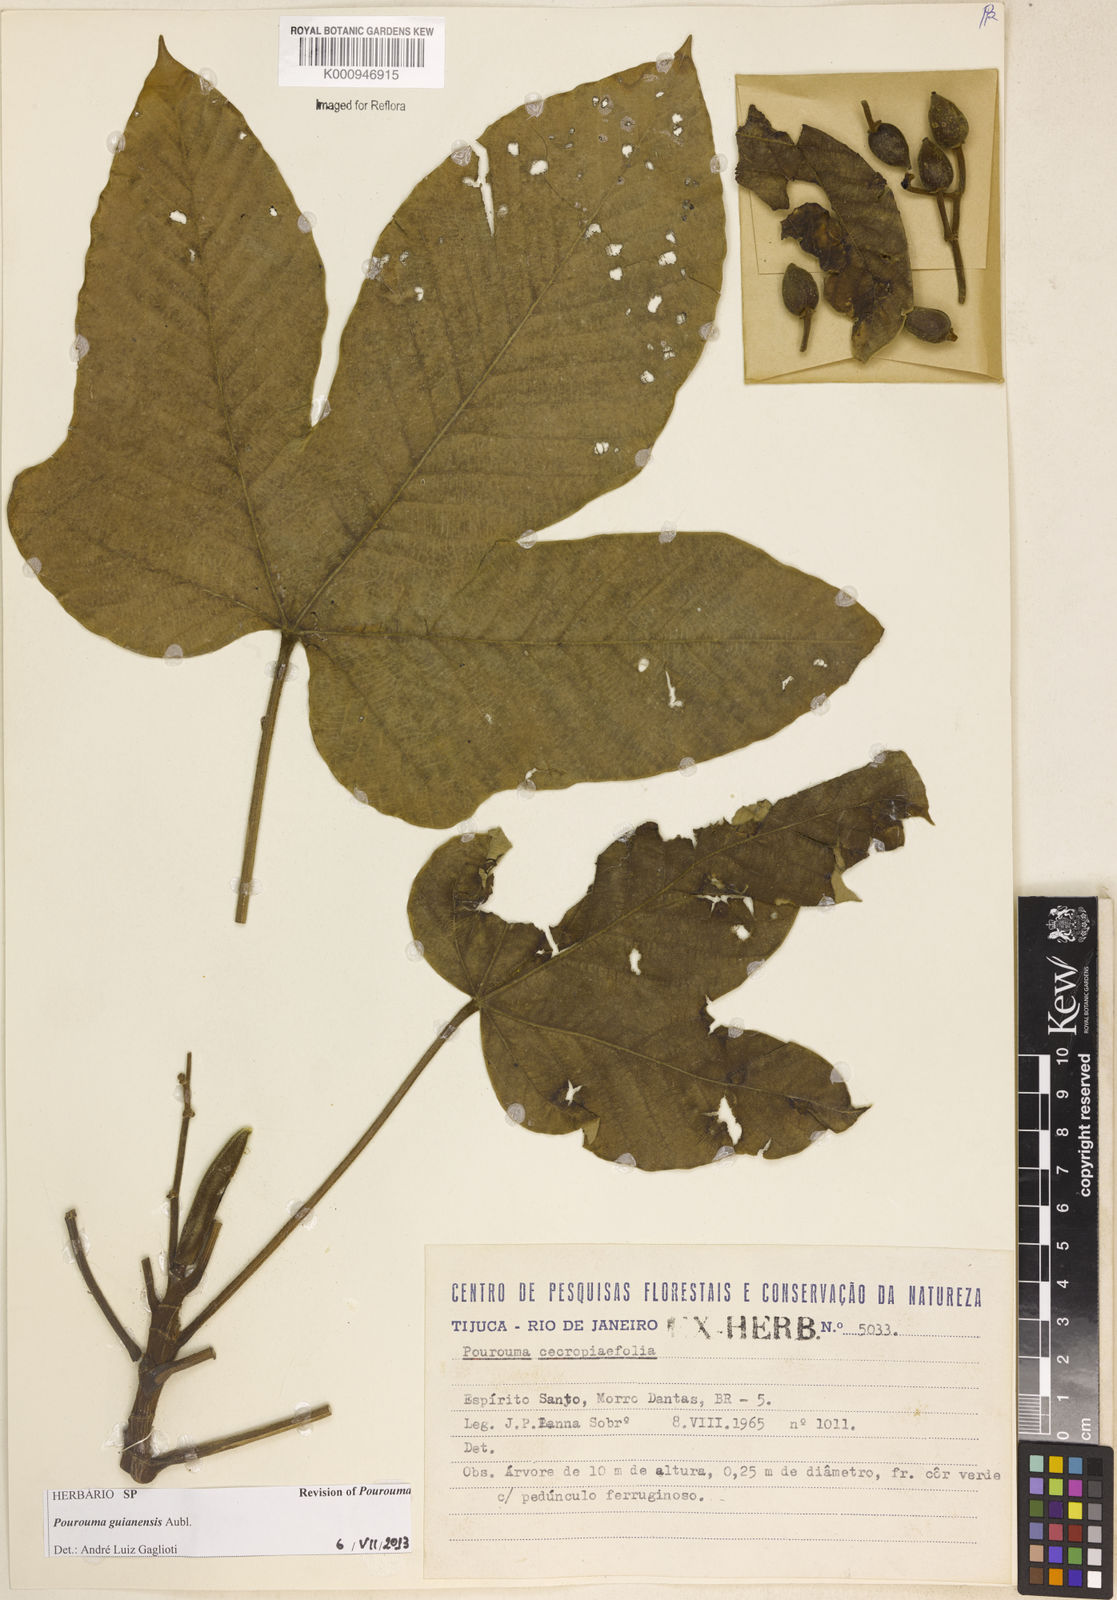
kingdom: Plantae
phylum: Tracheophyta
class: Magnoliopsida
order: Rosales
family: Urticaceae
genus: Pourouma
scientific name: Pourouma guianensis
